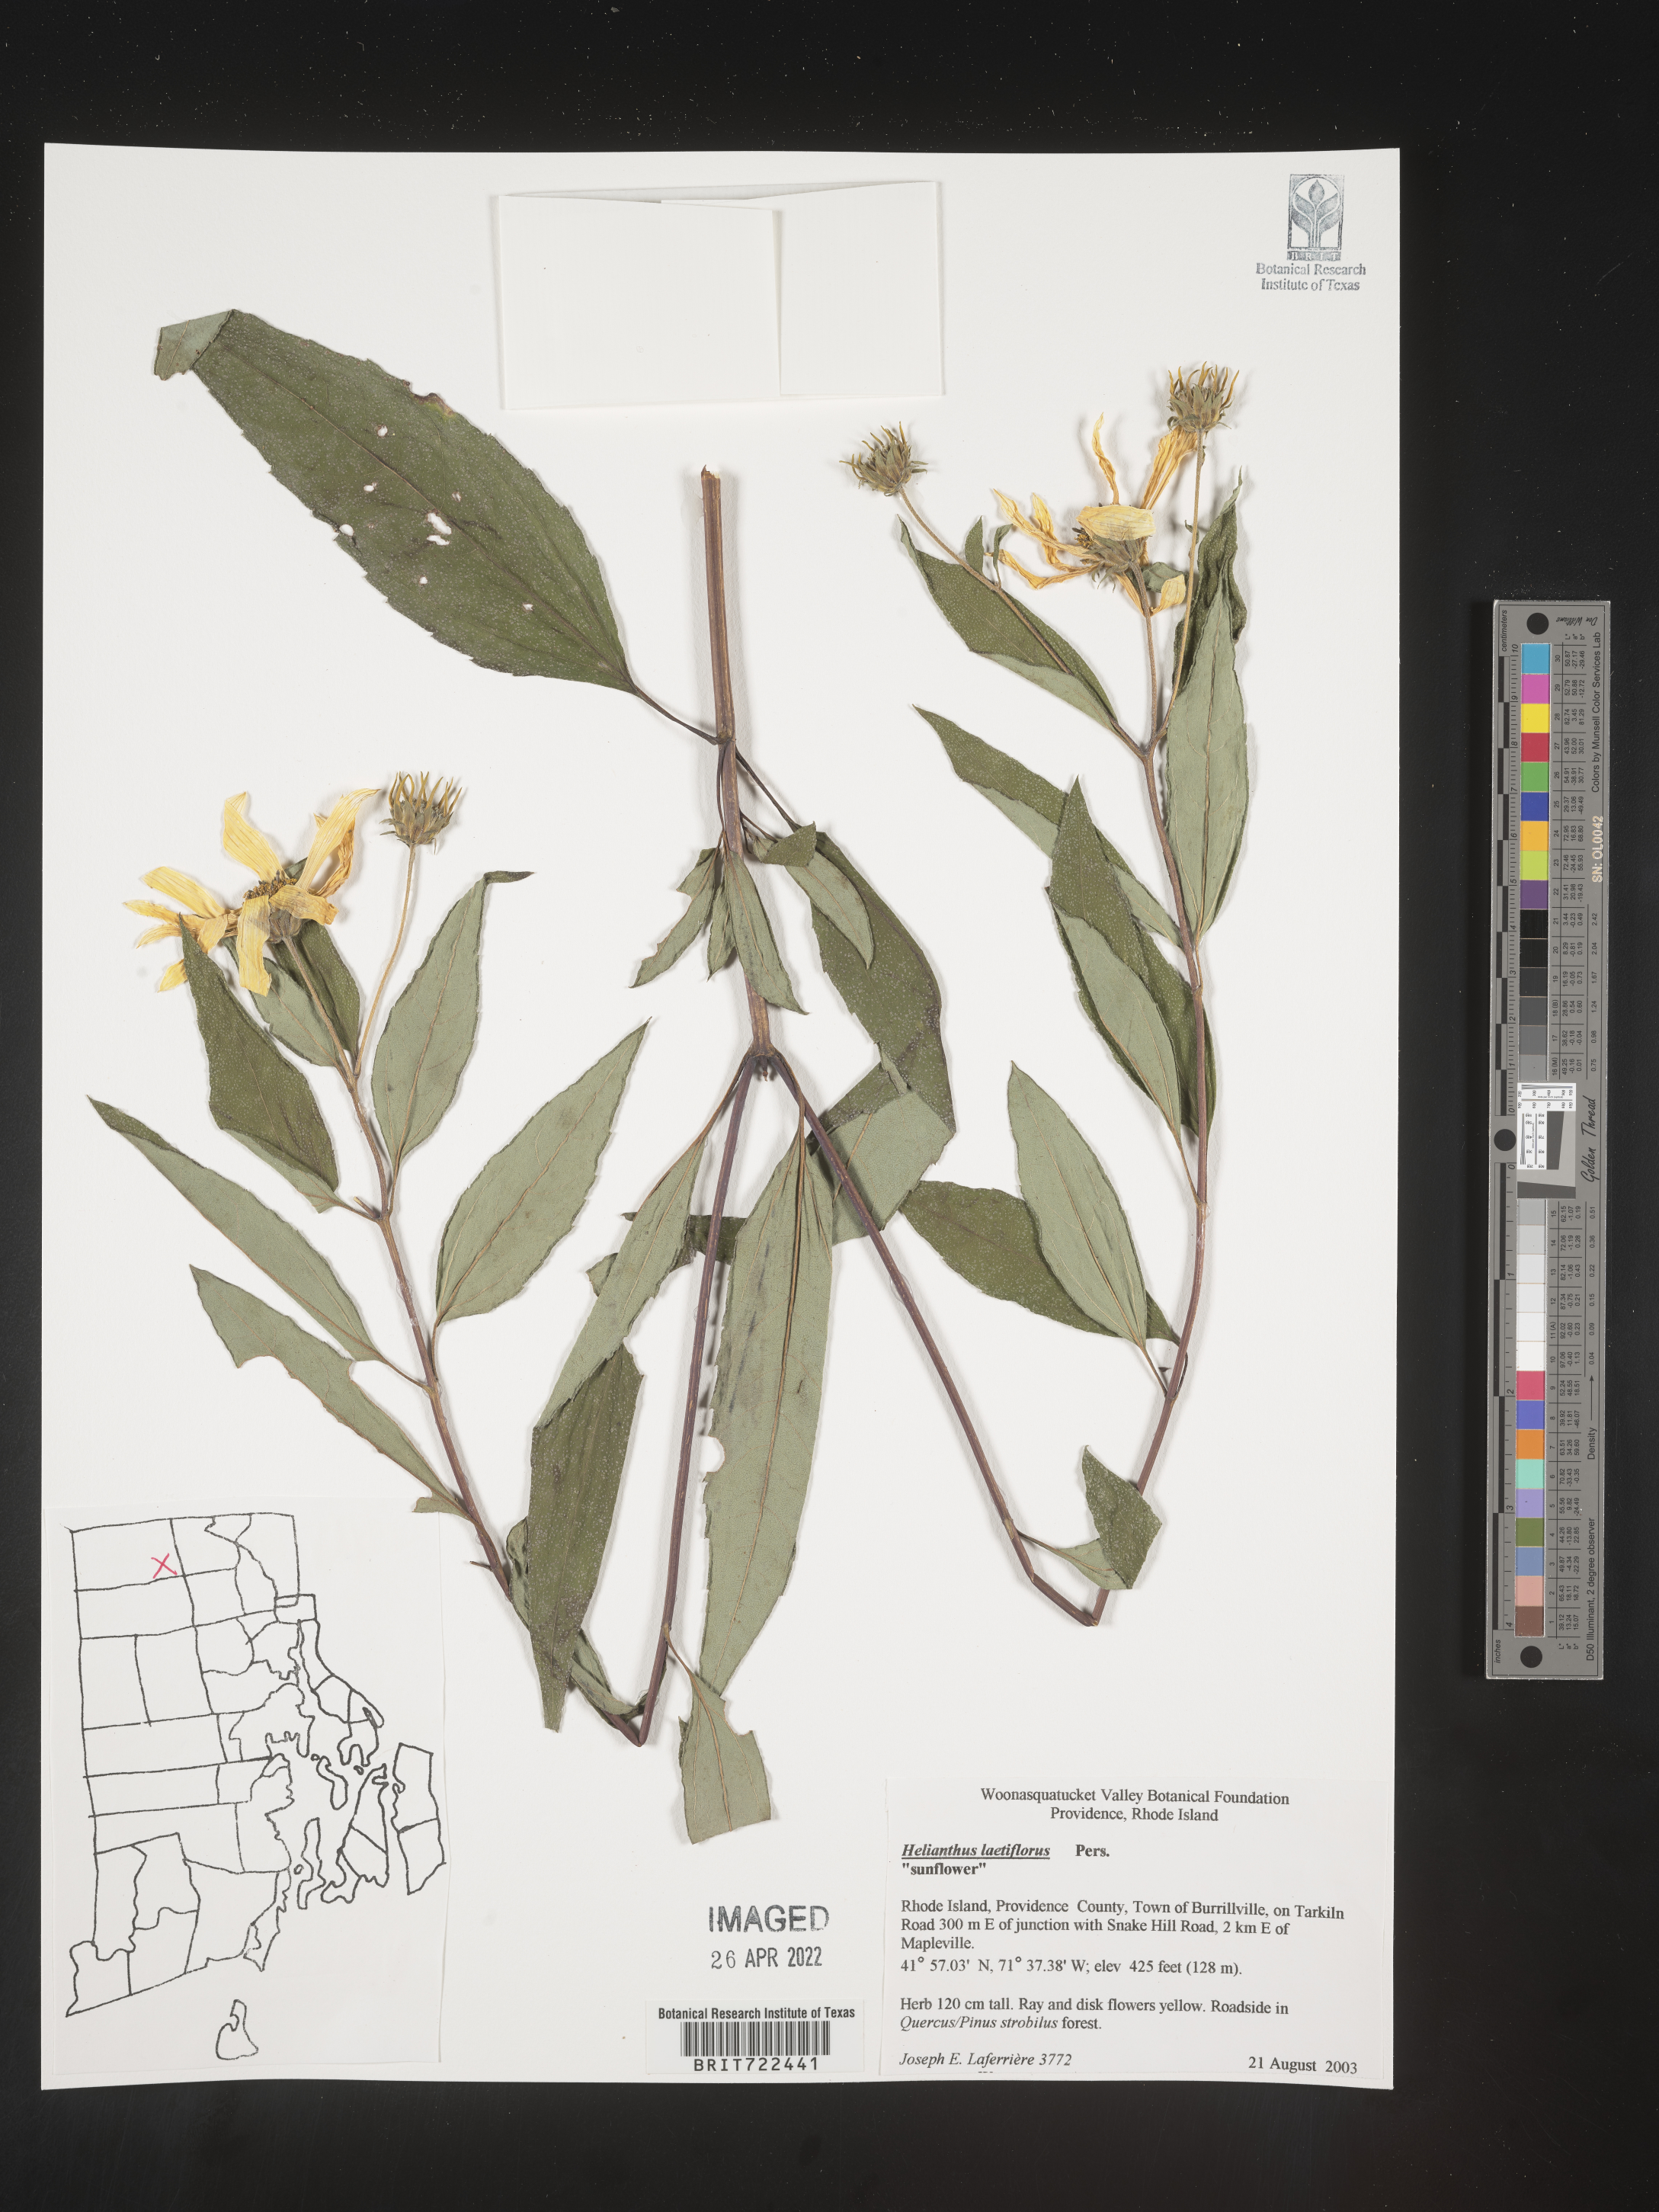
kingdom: Plantae
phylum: Tracheophyta
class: Magnoliopsida
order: Asterales
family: Asteraceae
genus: Helianthus
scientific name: Helianthus laetiflorus
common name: Perennial sunflower
